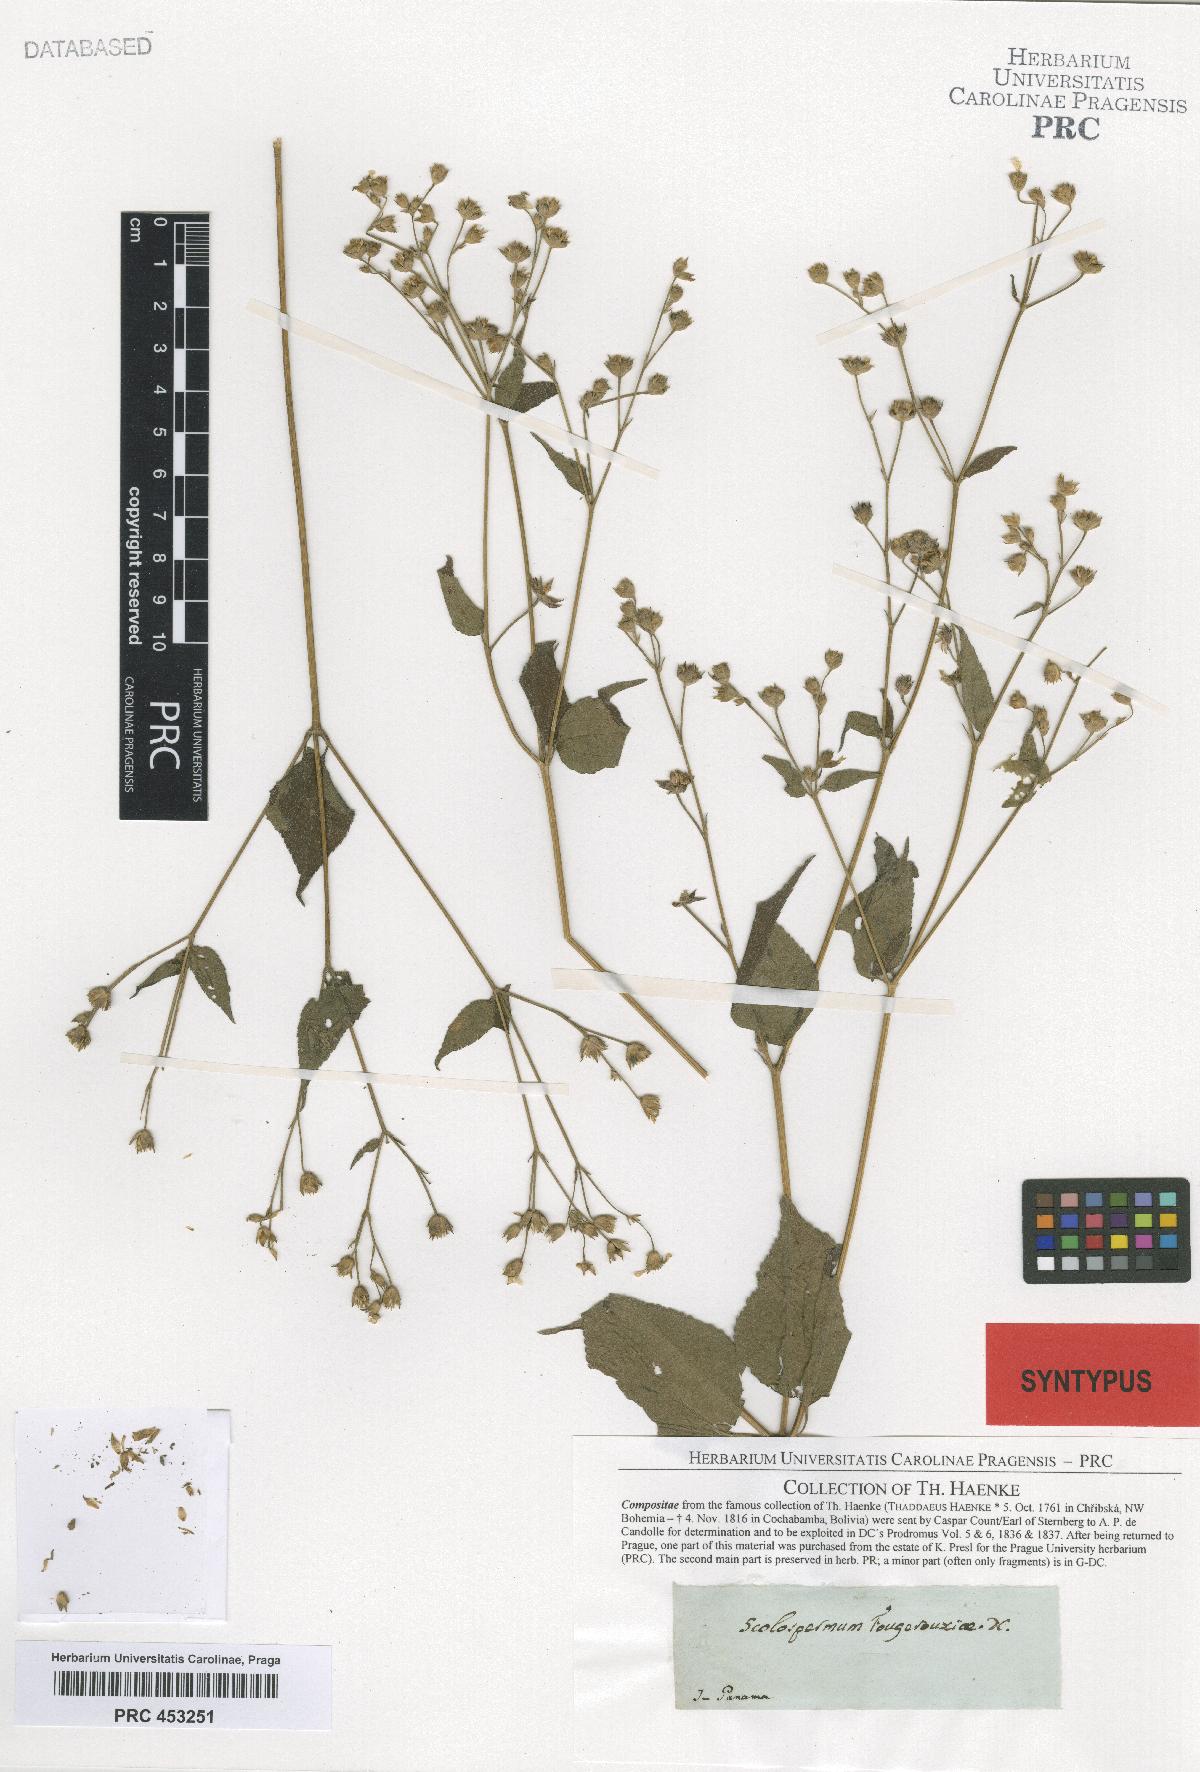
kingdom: Plantae
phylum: Tracheophyta
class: Magnoliopsida
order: Asterales
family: Asteraceae
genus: Baltimora
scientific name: Baltimora recta
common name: Beautyhead
